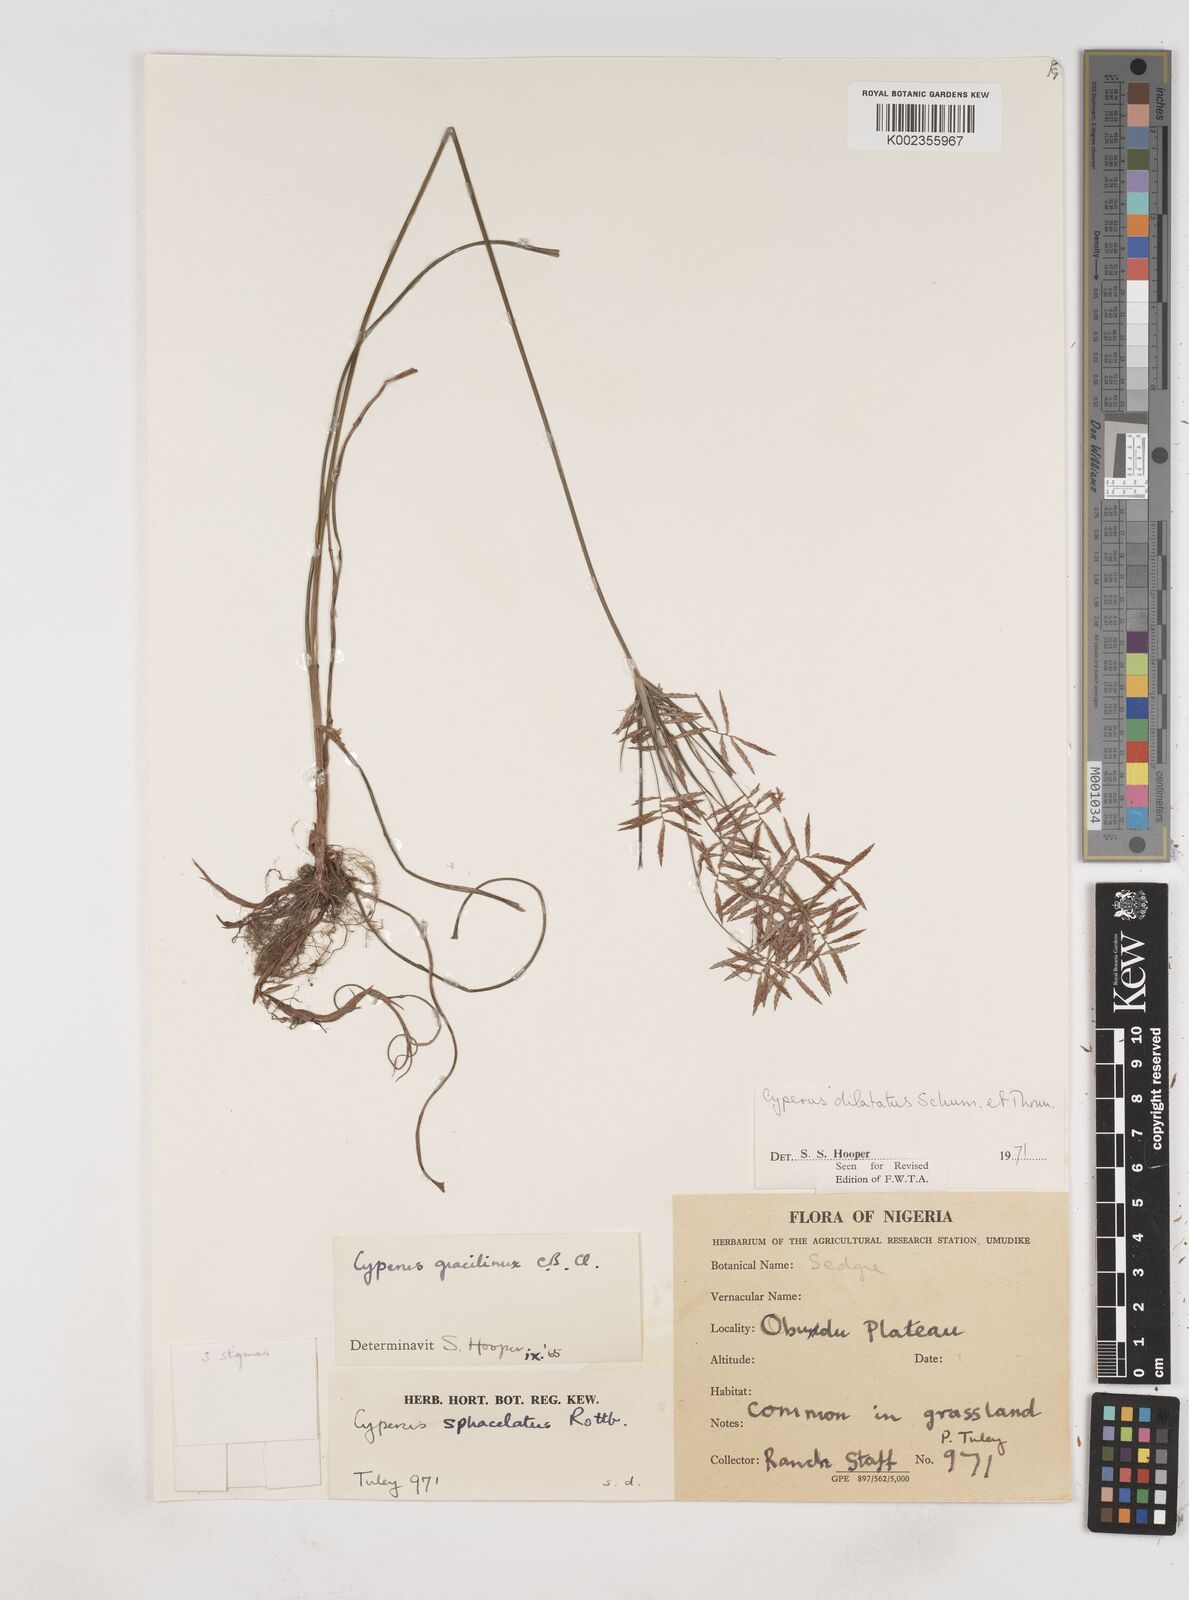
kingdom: Plantae
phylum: Tracheophyta
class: Liliopsida
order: Poales
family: Cyperaceae
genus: Cyperus
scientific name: Cyperus dilatatus
